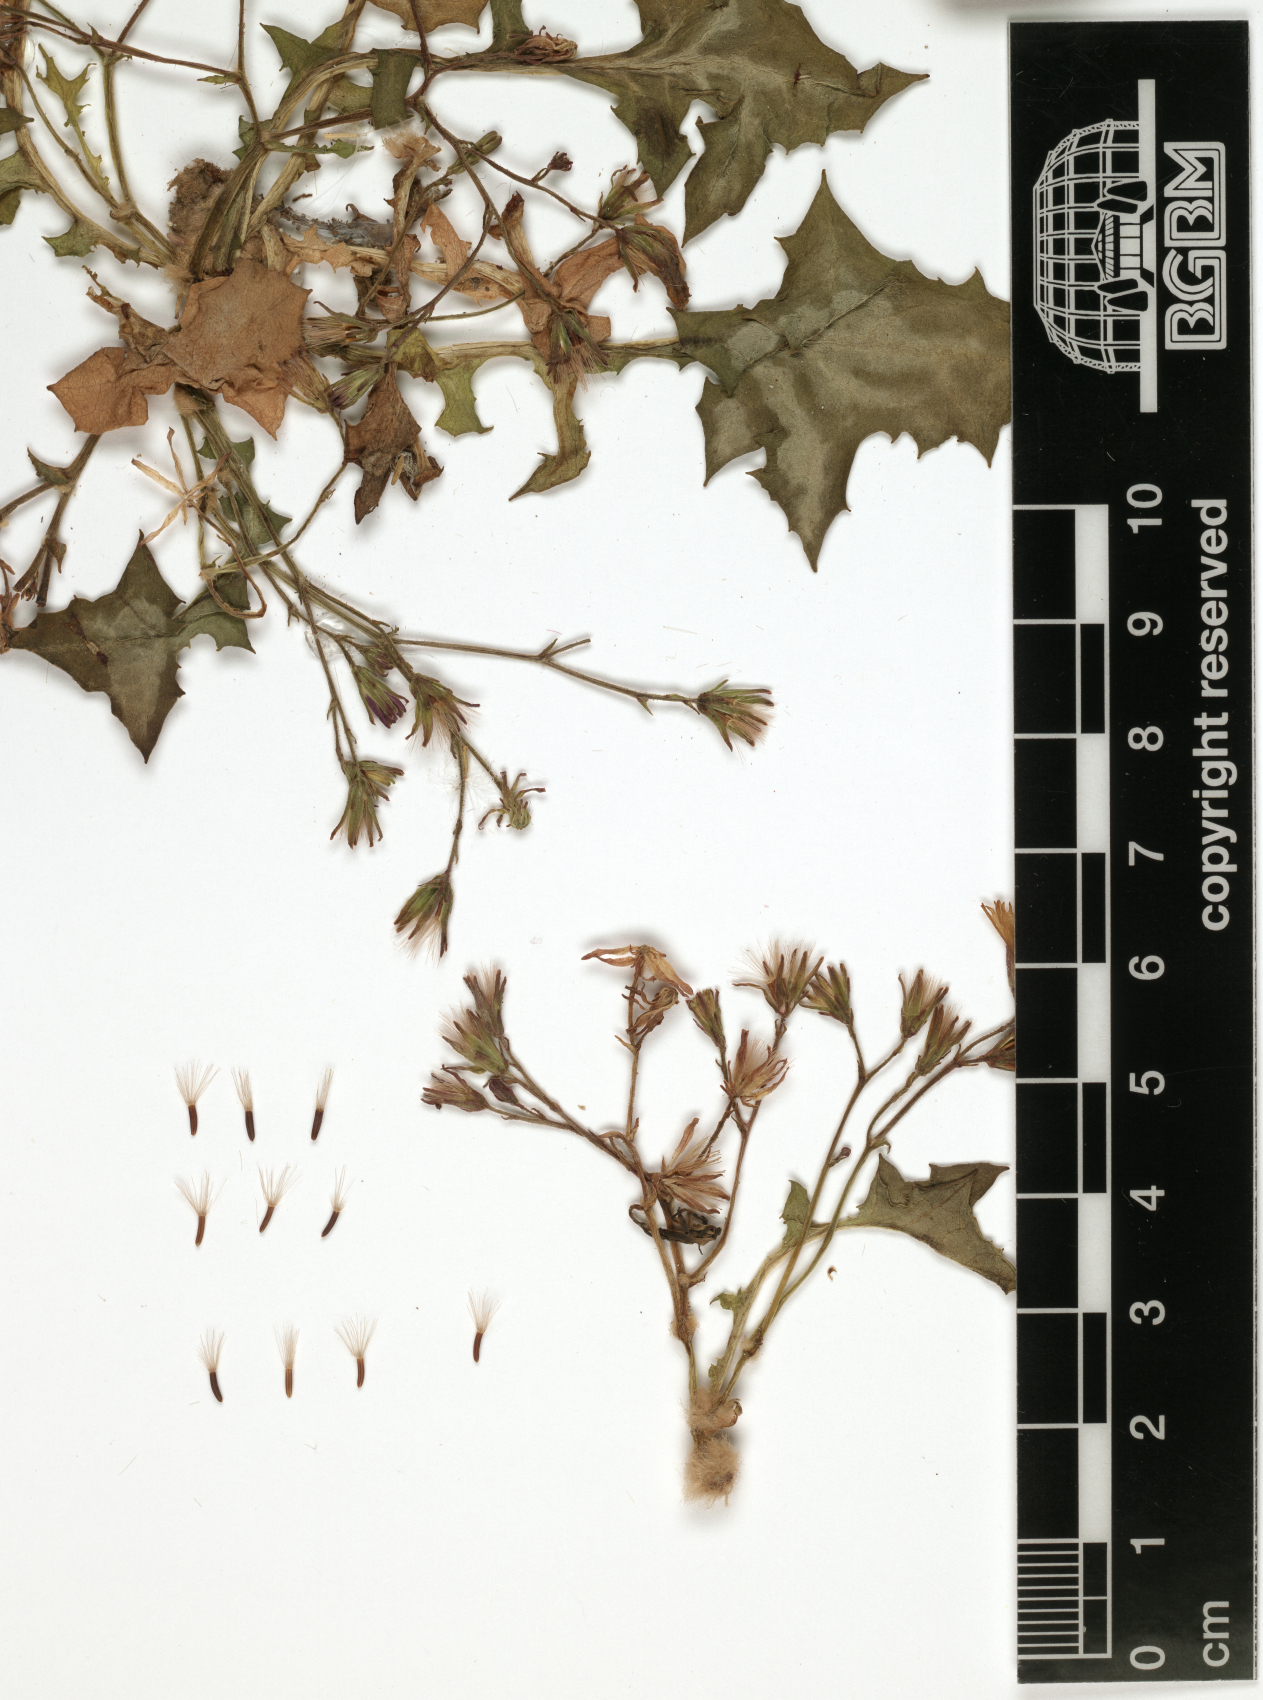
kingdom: Plantae
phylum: Tracheophyta
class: Magnoliopsida
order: Asterales
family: Asteraceae
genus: Erythroseris
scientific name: Erythroseris amabilis
